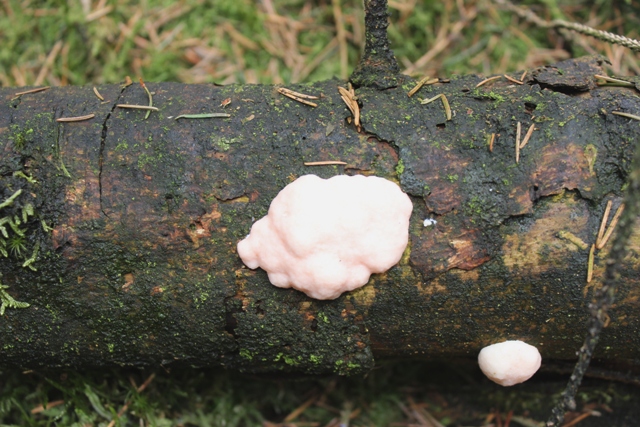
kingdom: Fungi
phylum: Basidiomycota
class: Tremellomycetes
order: Tremellales
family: Naemateliaceae
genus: Naematelia
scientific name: Naematelia encephala
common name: fyrre-bævresvamp
